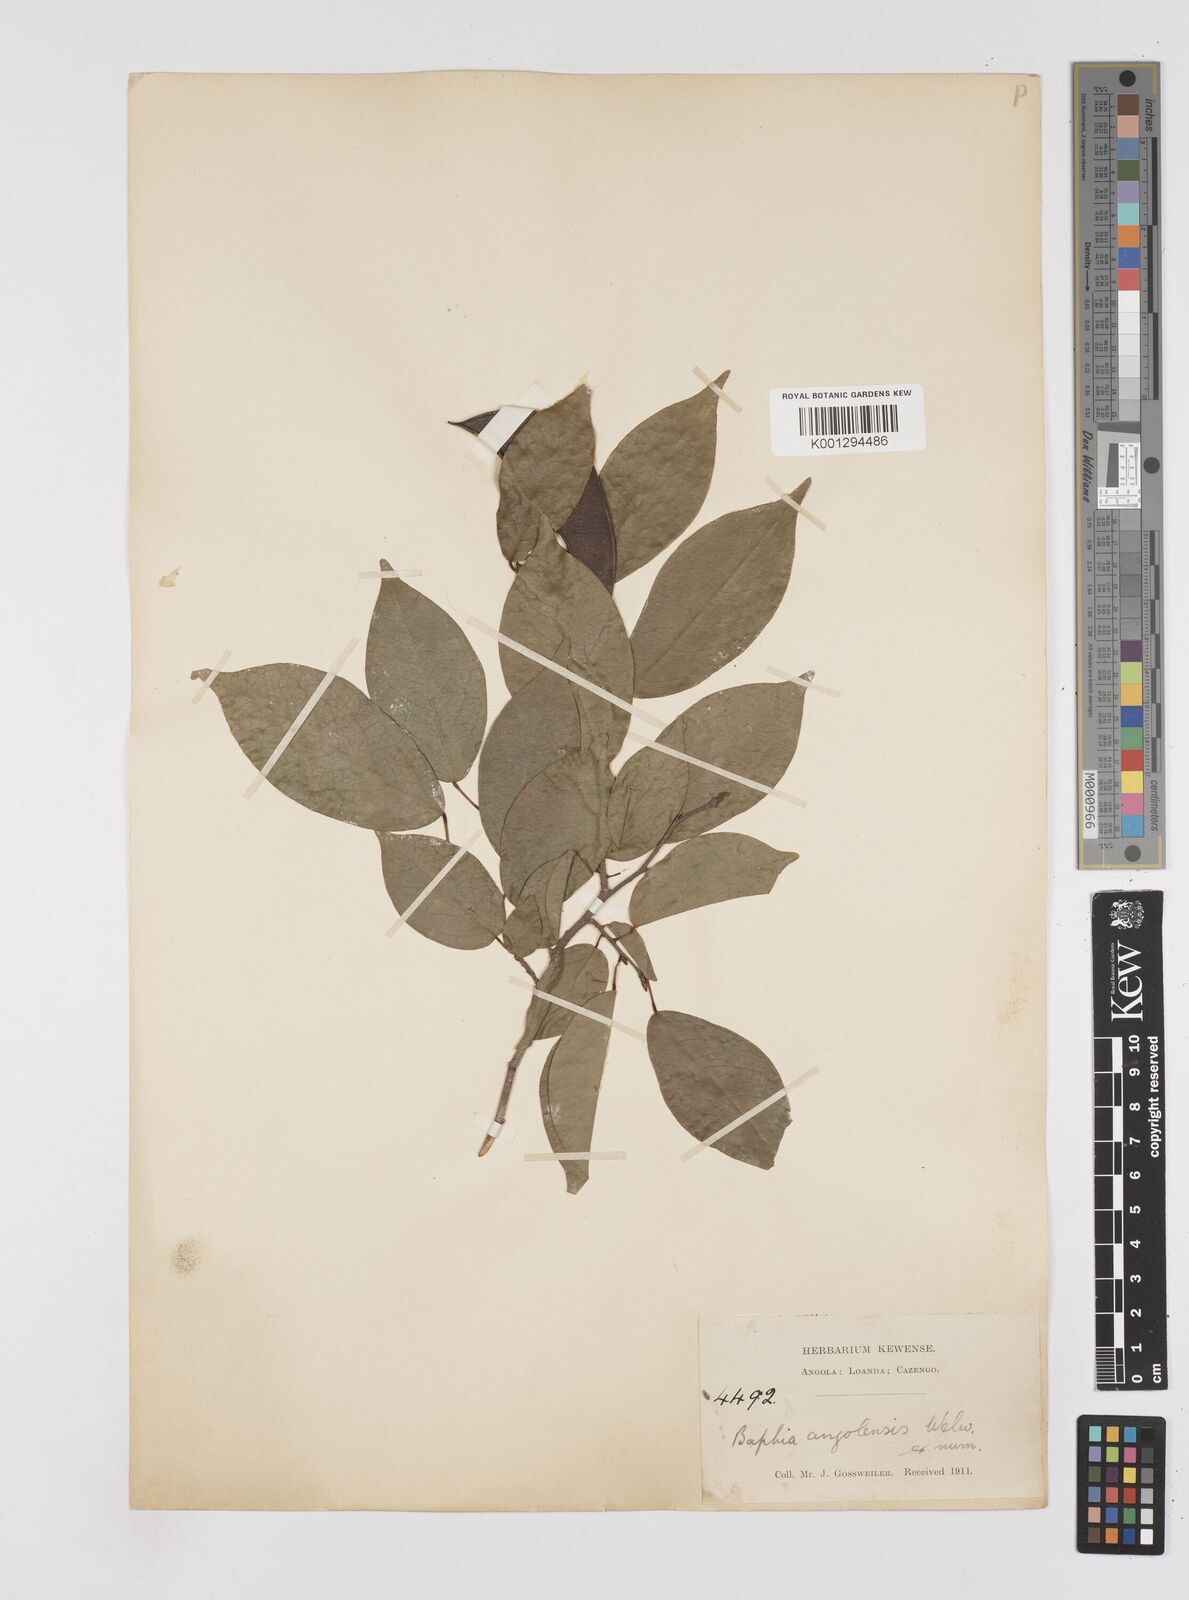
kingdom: Plantae
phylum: Tracheophyta
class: Magnoliopsida
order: Fabales
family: Fabaceae
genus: Baphia
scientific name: Baphia angolensis
